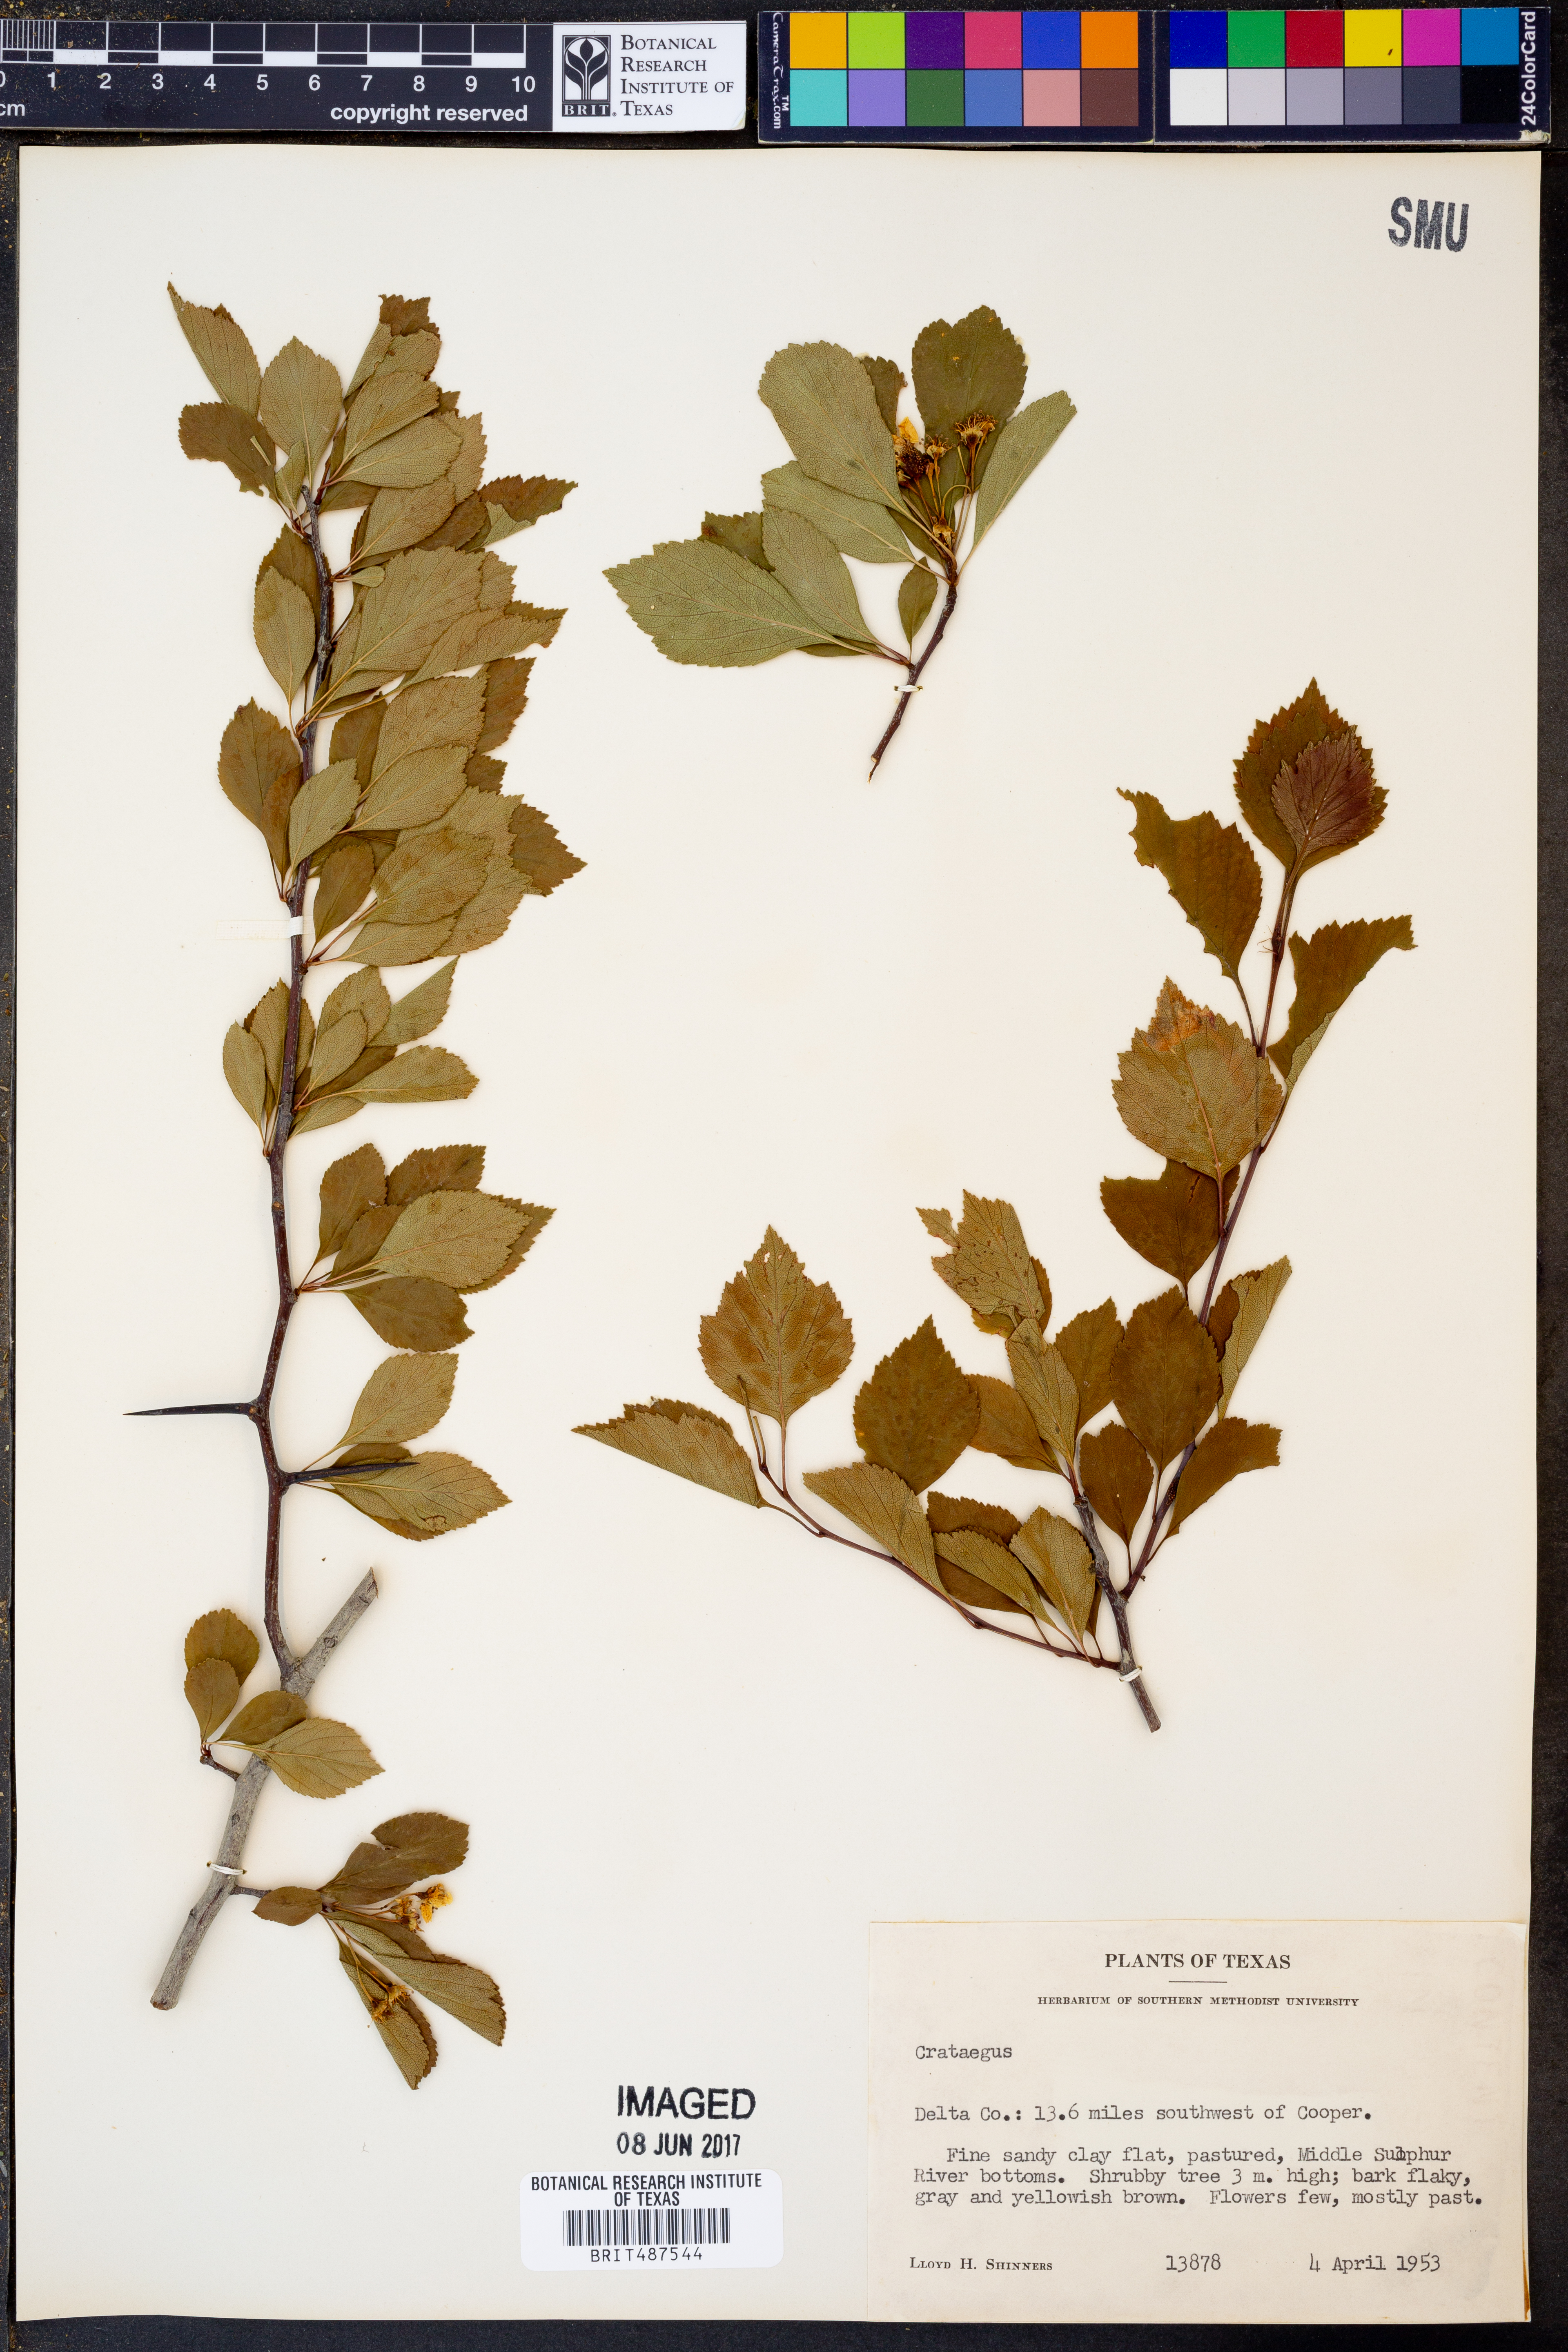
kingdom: Plantae
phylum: Tracheophyta
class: Magnoliopsida
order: Rosales
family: Rosaceae
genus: Crataegus
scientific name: Crataegus
